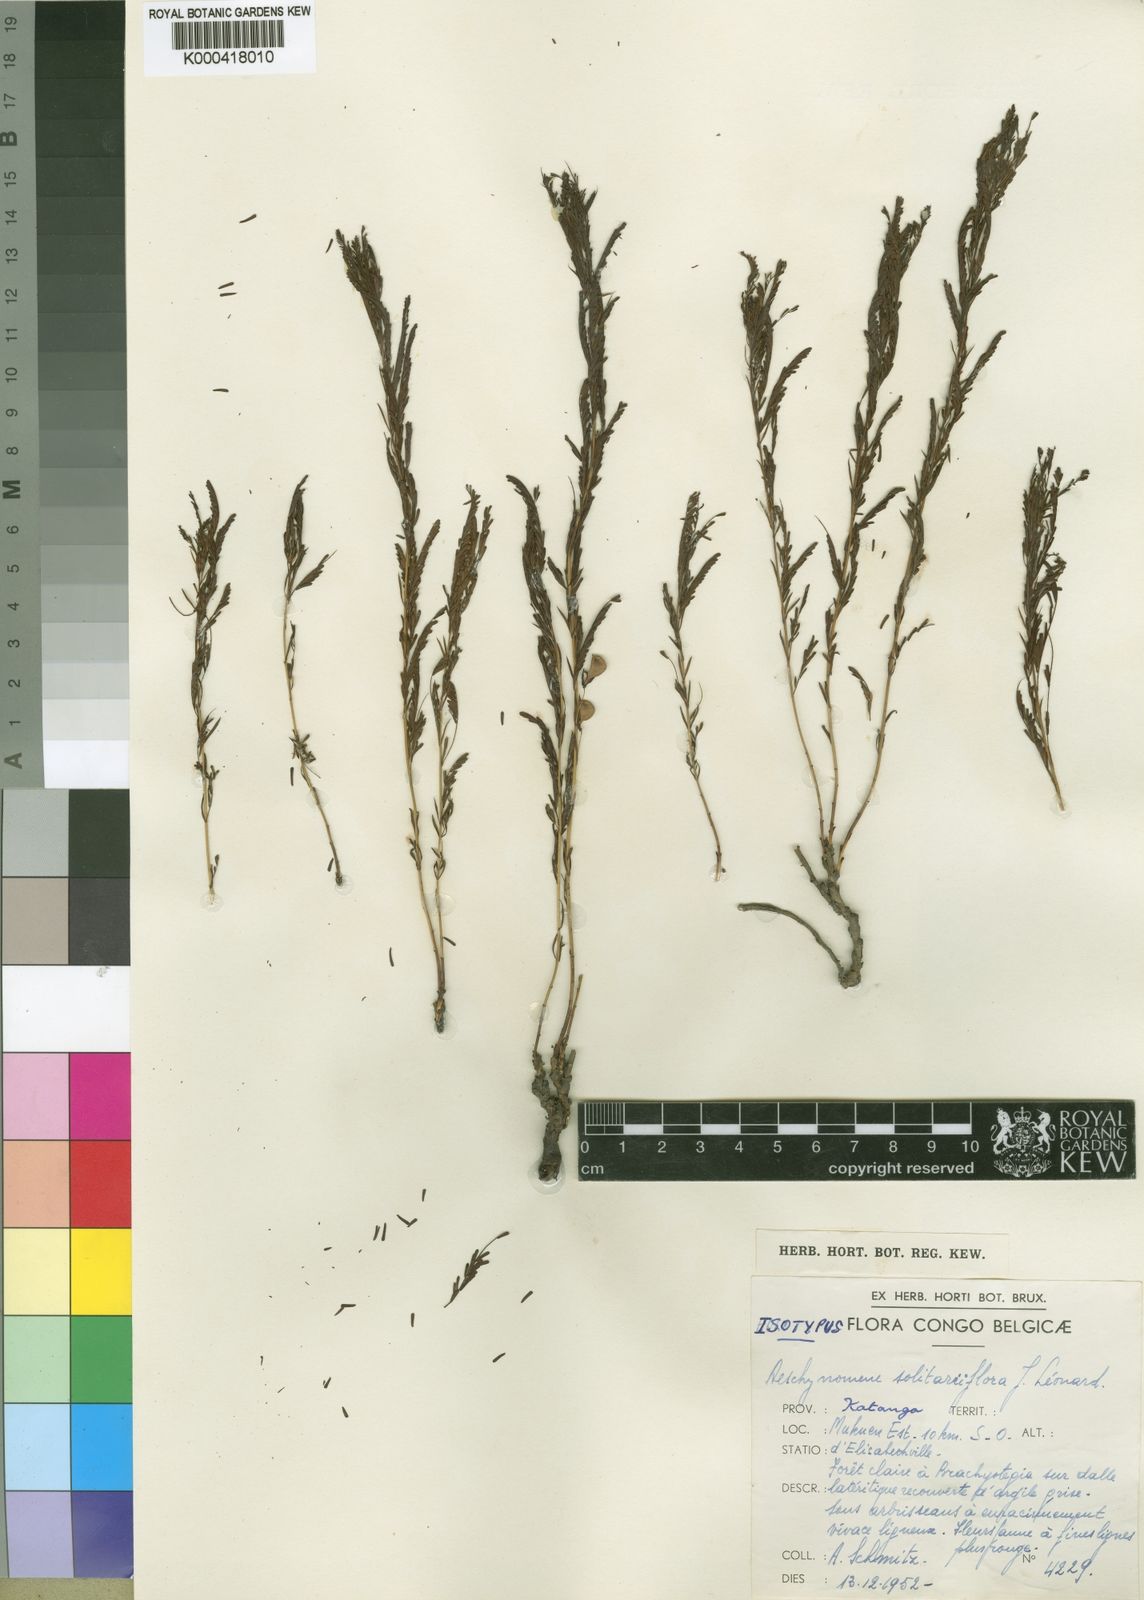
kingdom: Plantae
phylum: Tracheophyta
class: Magnoliopsida
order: Fabales
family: Fabaceae
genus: Aeschynomene
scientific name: Aeschynomene
